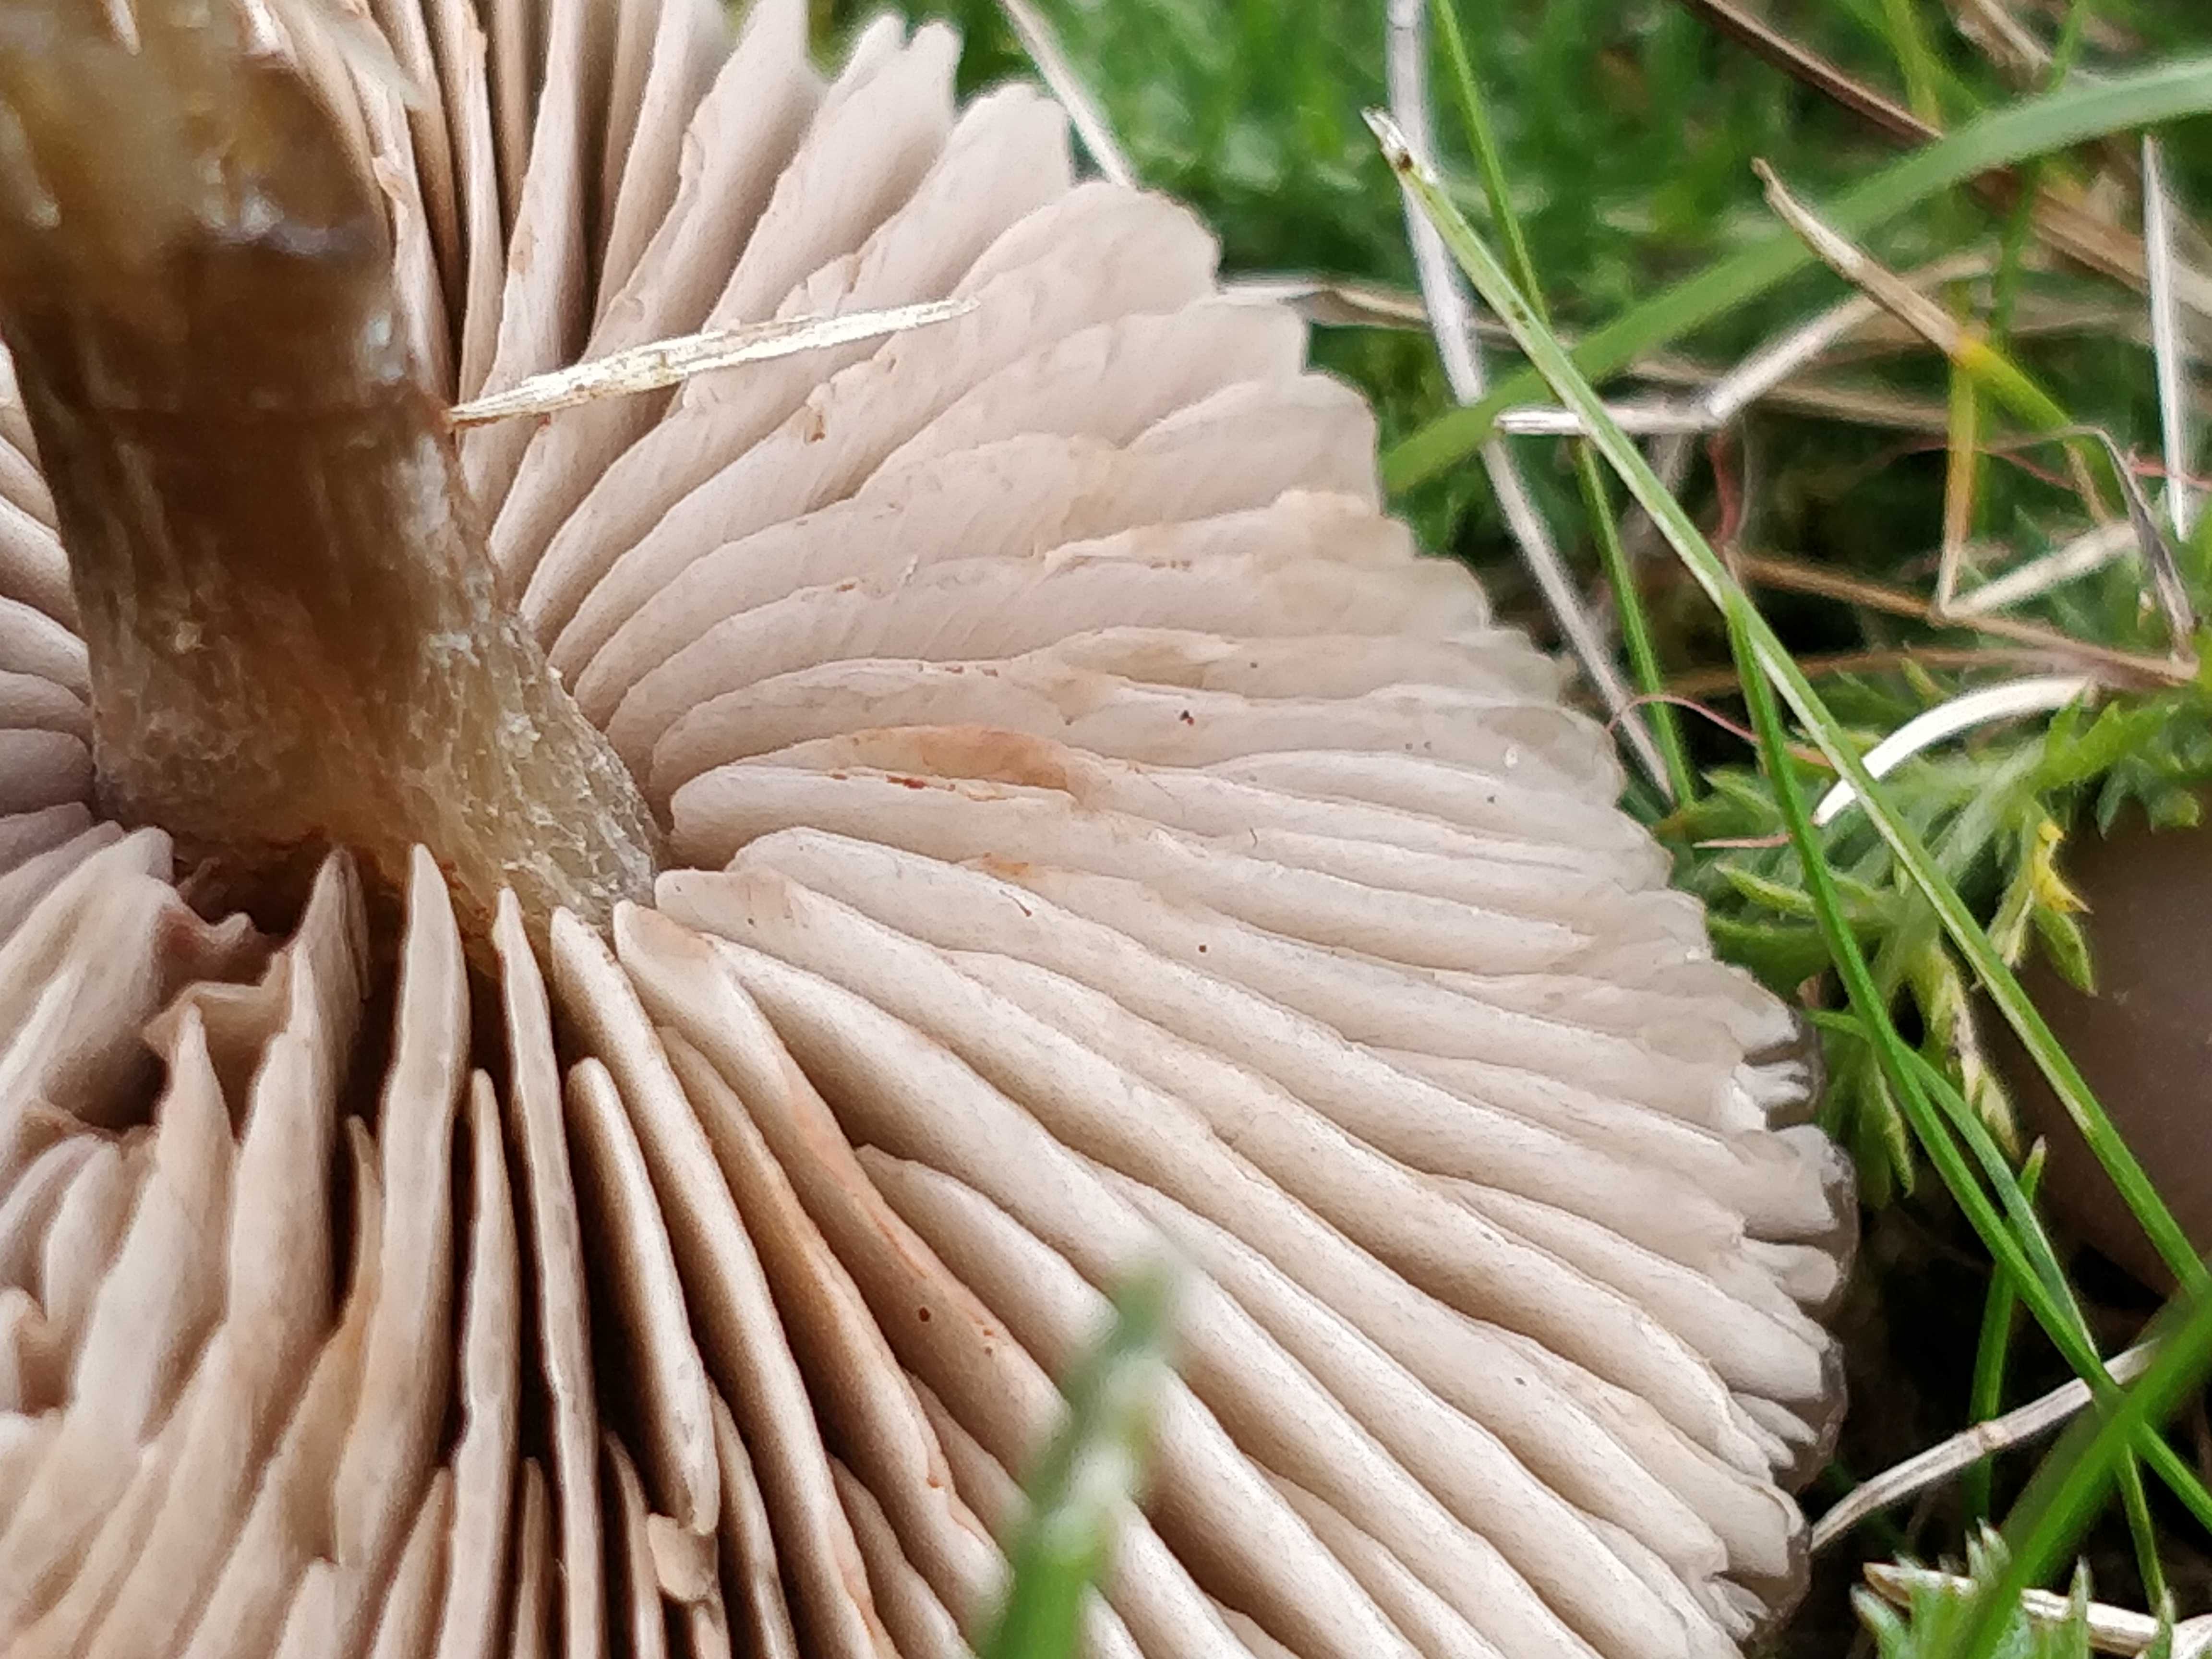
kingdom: Fungi
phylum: Basidiomycota
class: Agaricomycetes
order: Agaricales
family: Entolomataceae
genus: Entoloma
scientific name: Entoloma
